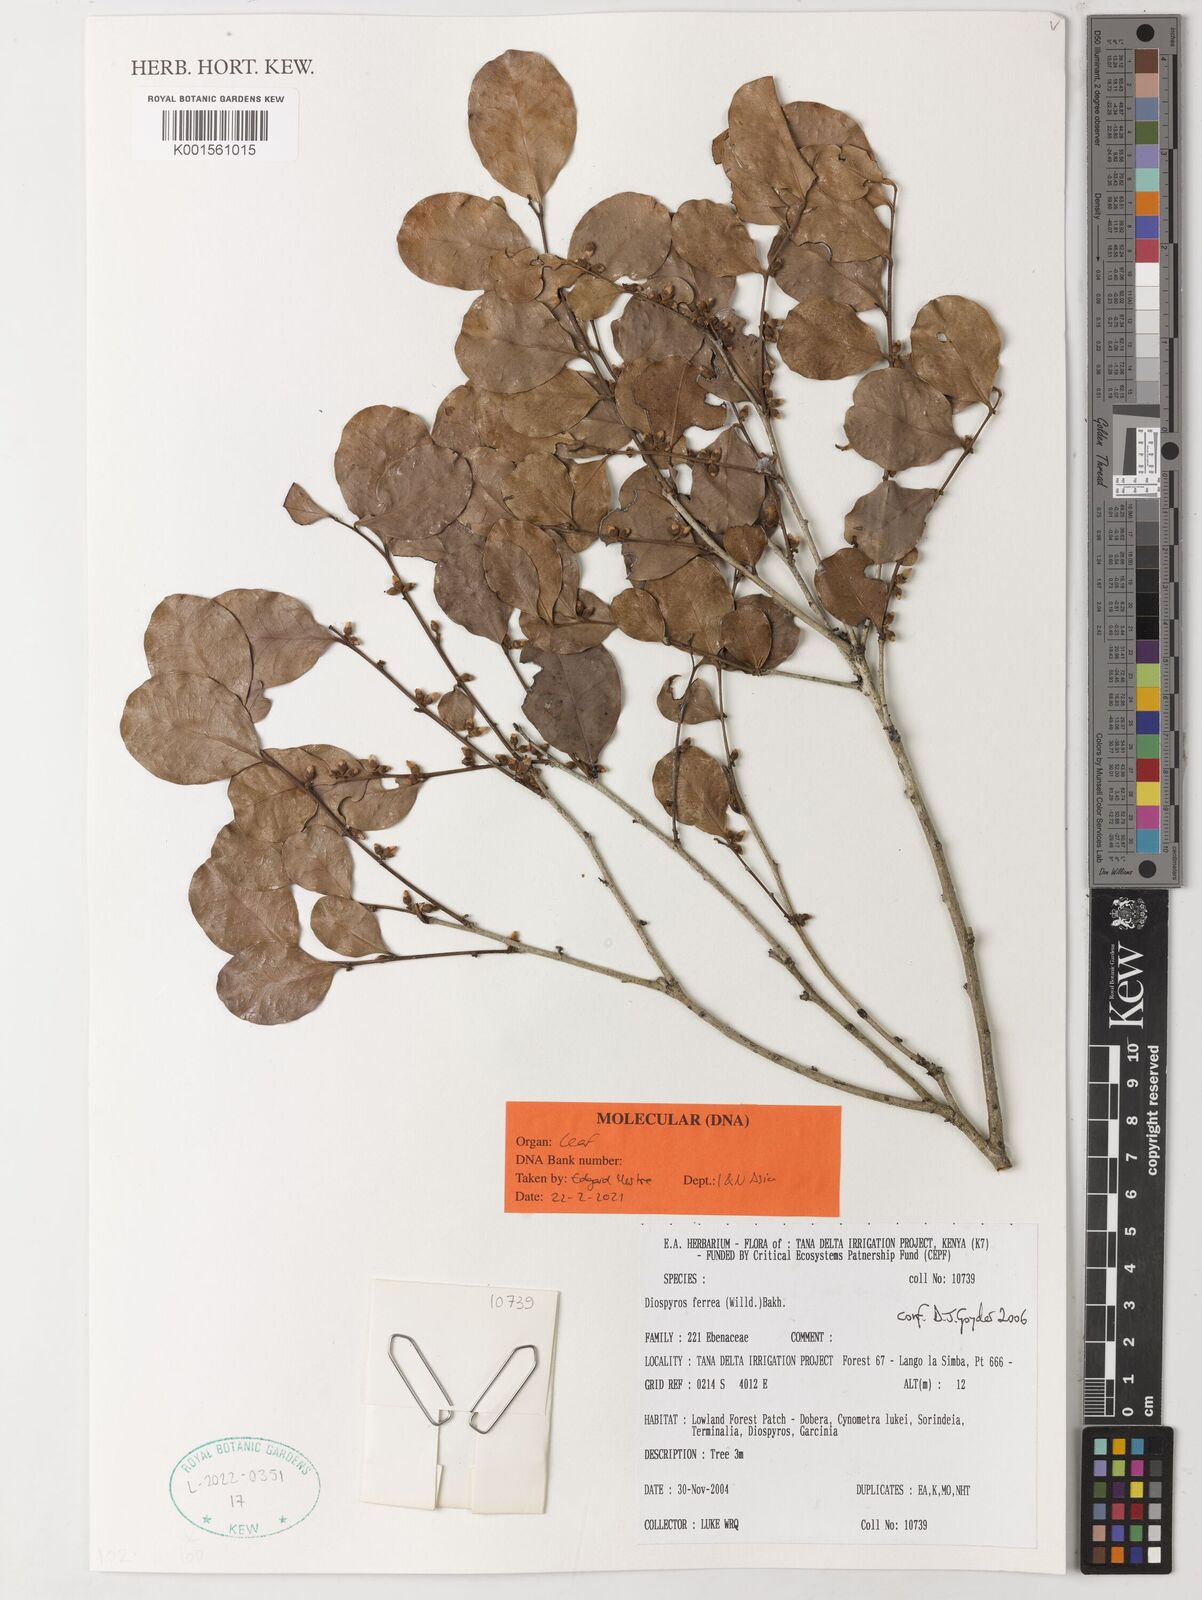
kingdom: Plantae
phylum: Tracheophyta
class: Magnoliopsida
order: Ericales
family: Ebenaceae
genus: Diospyros
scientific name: Diospyros ferrea
